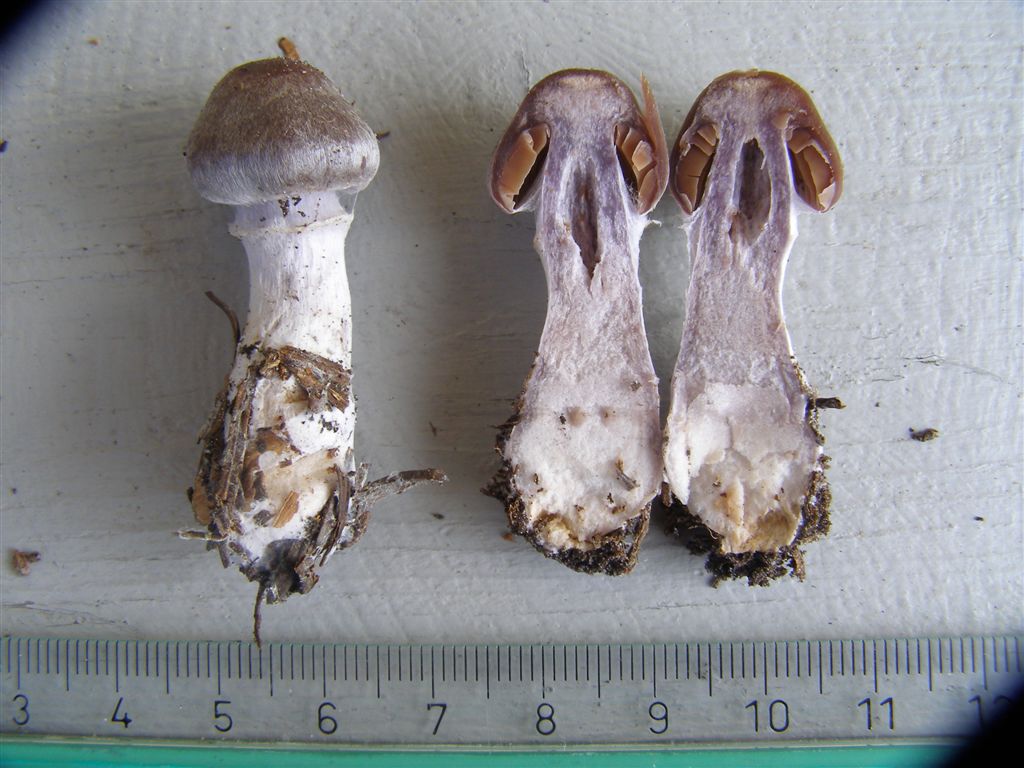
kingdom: Fungi
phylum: Basidiomycota
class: Agaricomycetes
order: Agaricales
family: Cortinariaceae
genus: Cortinarius
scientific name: Cortinarius kauffmanianus
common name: plantage-slørhat
